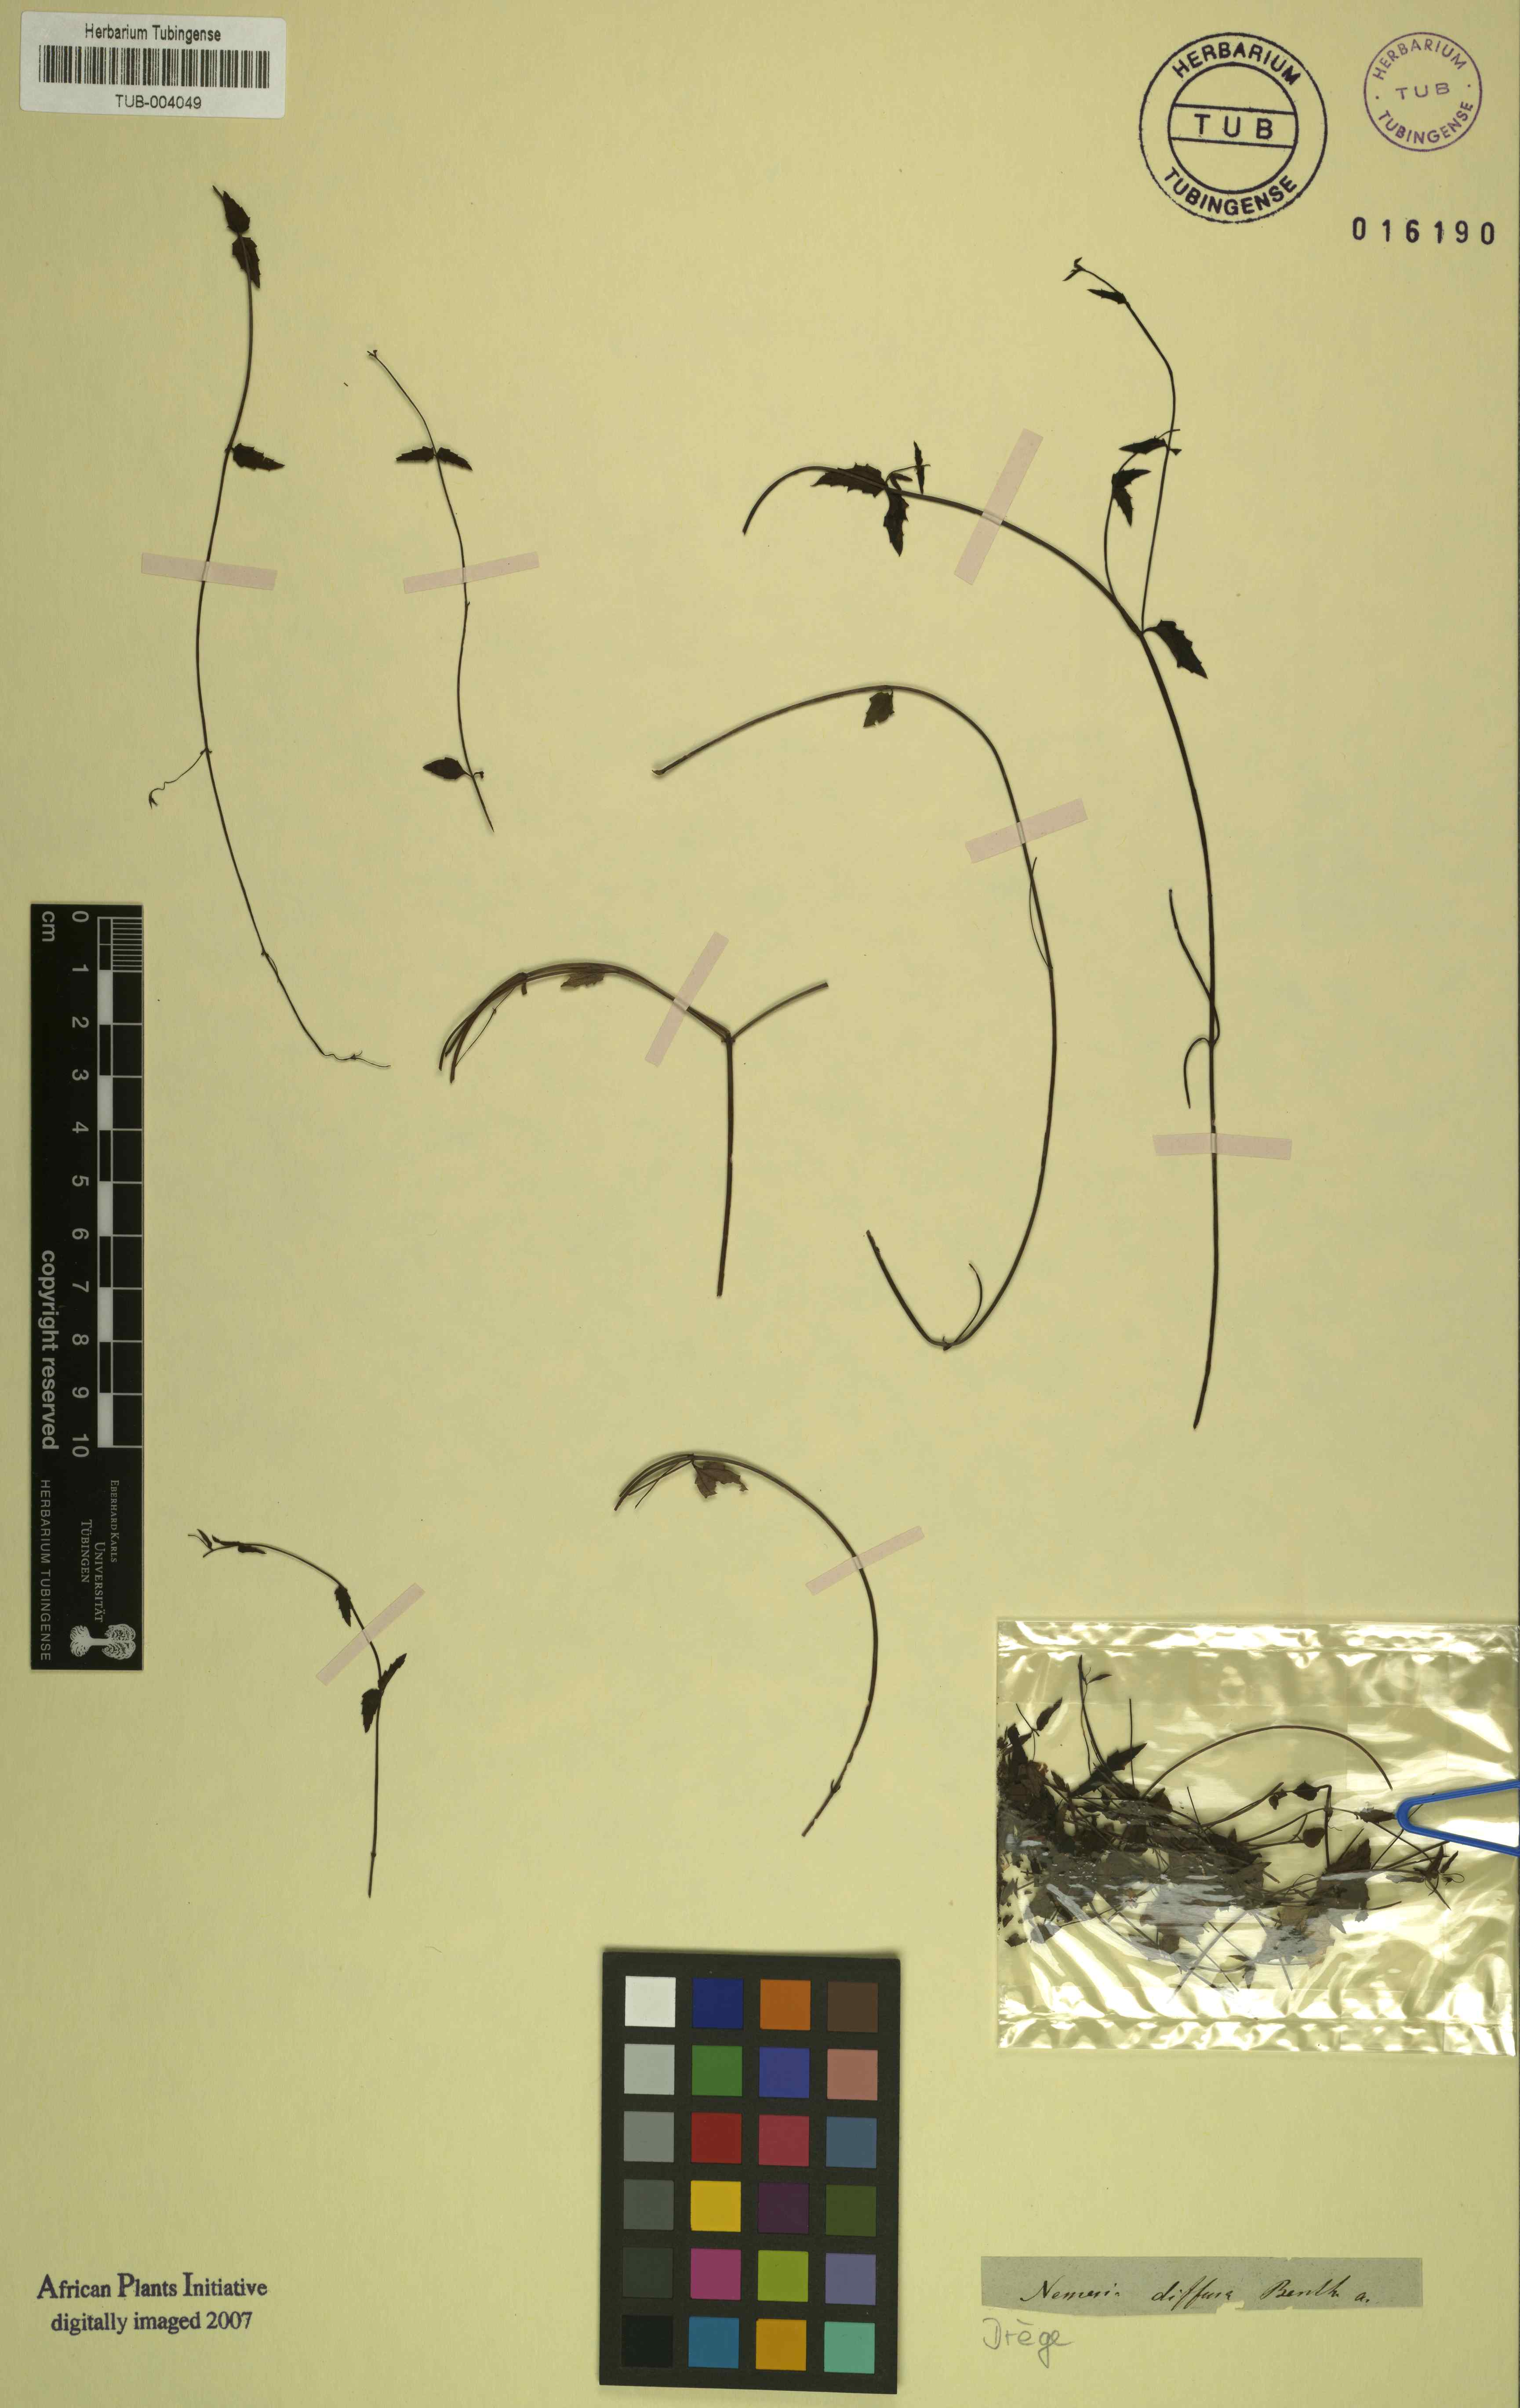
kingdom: Plantae
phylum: Tracheophyta
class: Magnoliopsida
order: Lamiales
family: Scrophulariaceae
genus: Nemesia
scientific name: Nemesia diffusa
